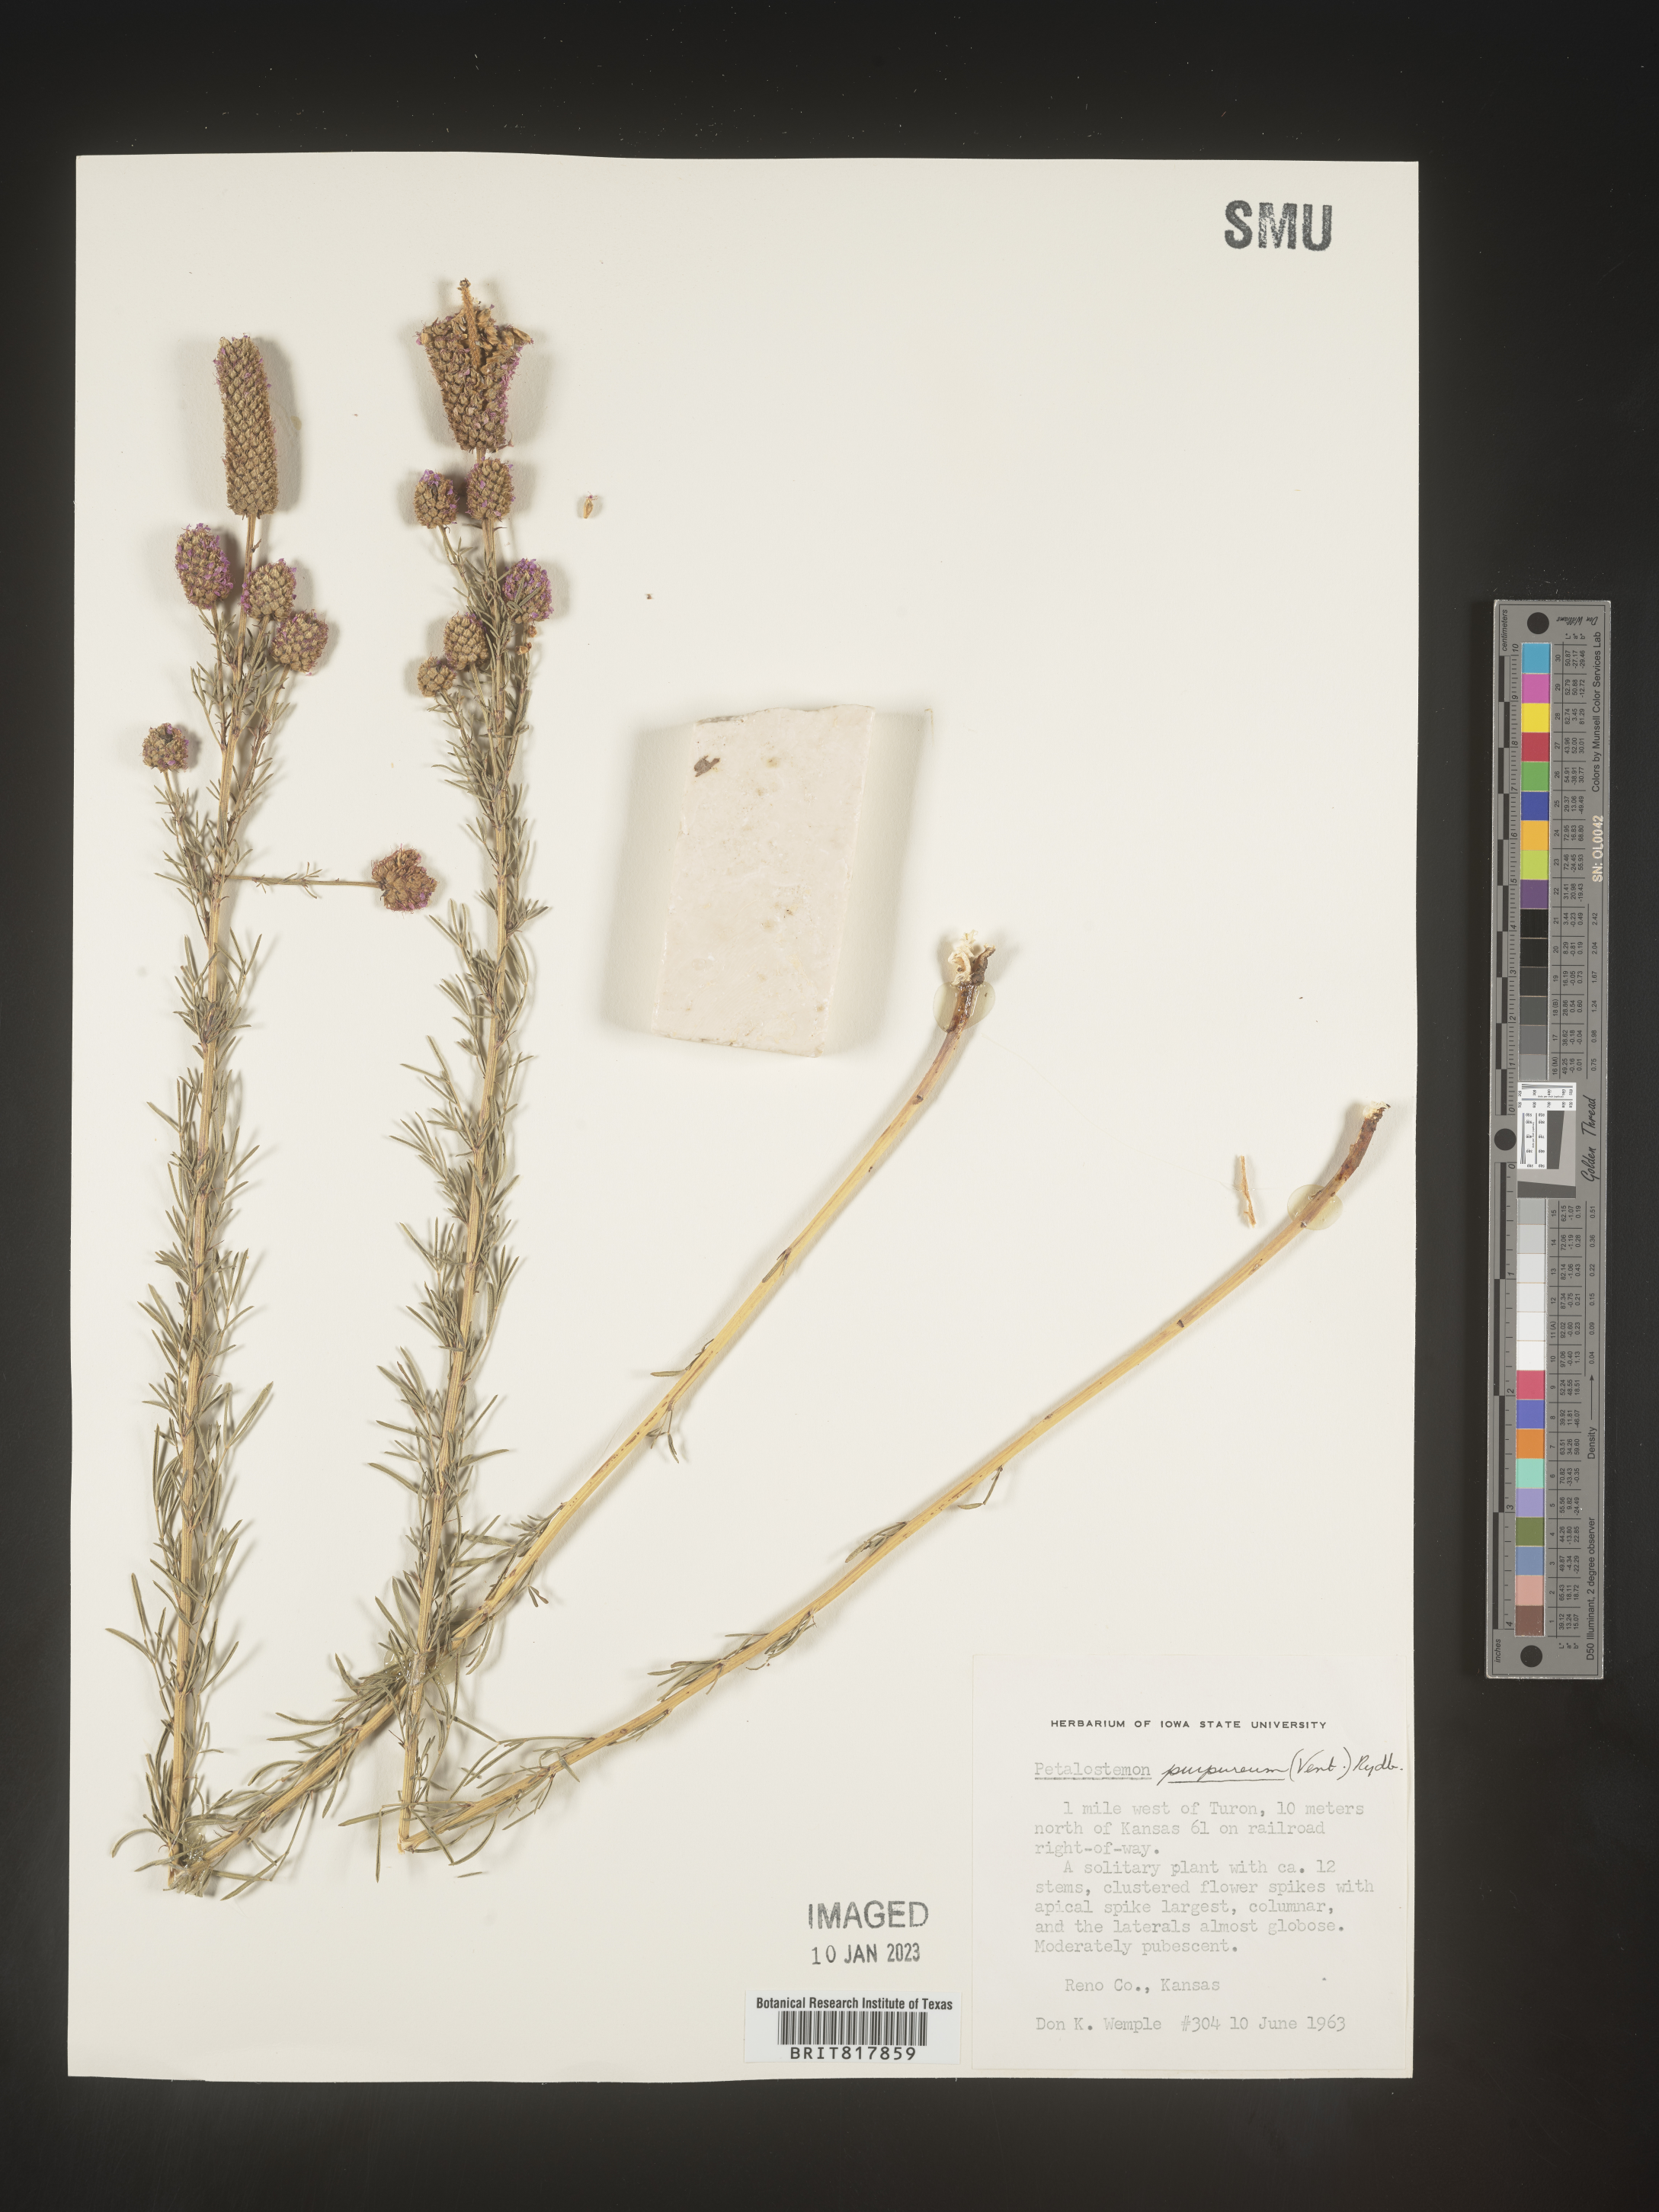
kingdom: Plantae
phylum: Tracheophyta
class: Magnoliopsida
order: Fabales
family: Fabaceae
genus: Dalea
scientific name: Dalea purpurea
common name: Purple prairie-clover
